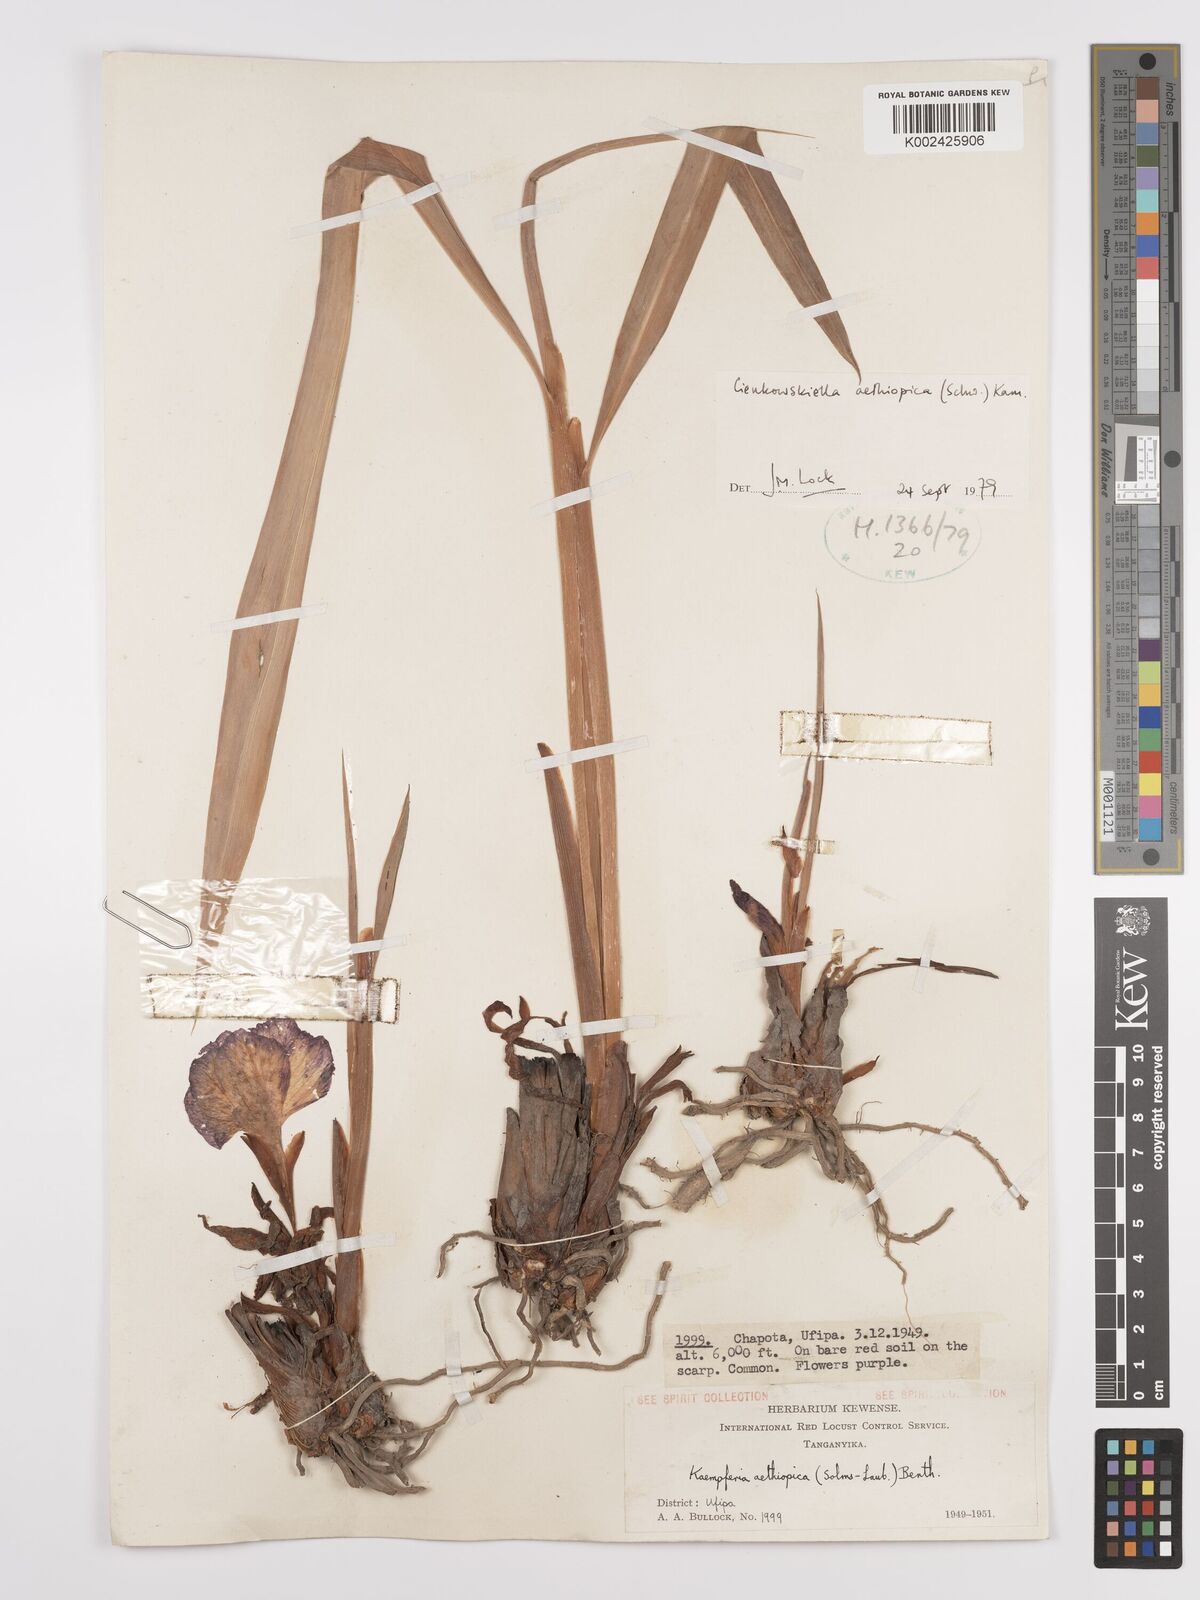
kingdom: Plantae
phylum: Tracheophyta
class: Liliopsida
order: Zingiberales
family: Zingiberaceae
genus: Siphonochilus
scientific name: Siphonochilus aethiopicus
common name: African-ginger
